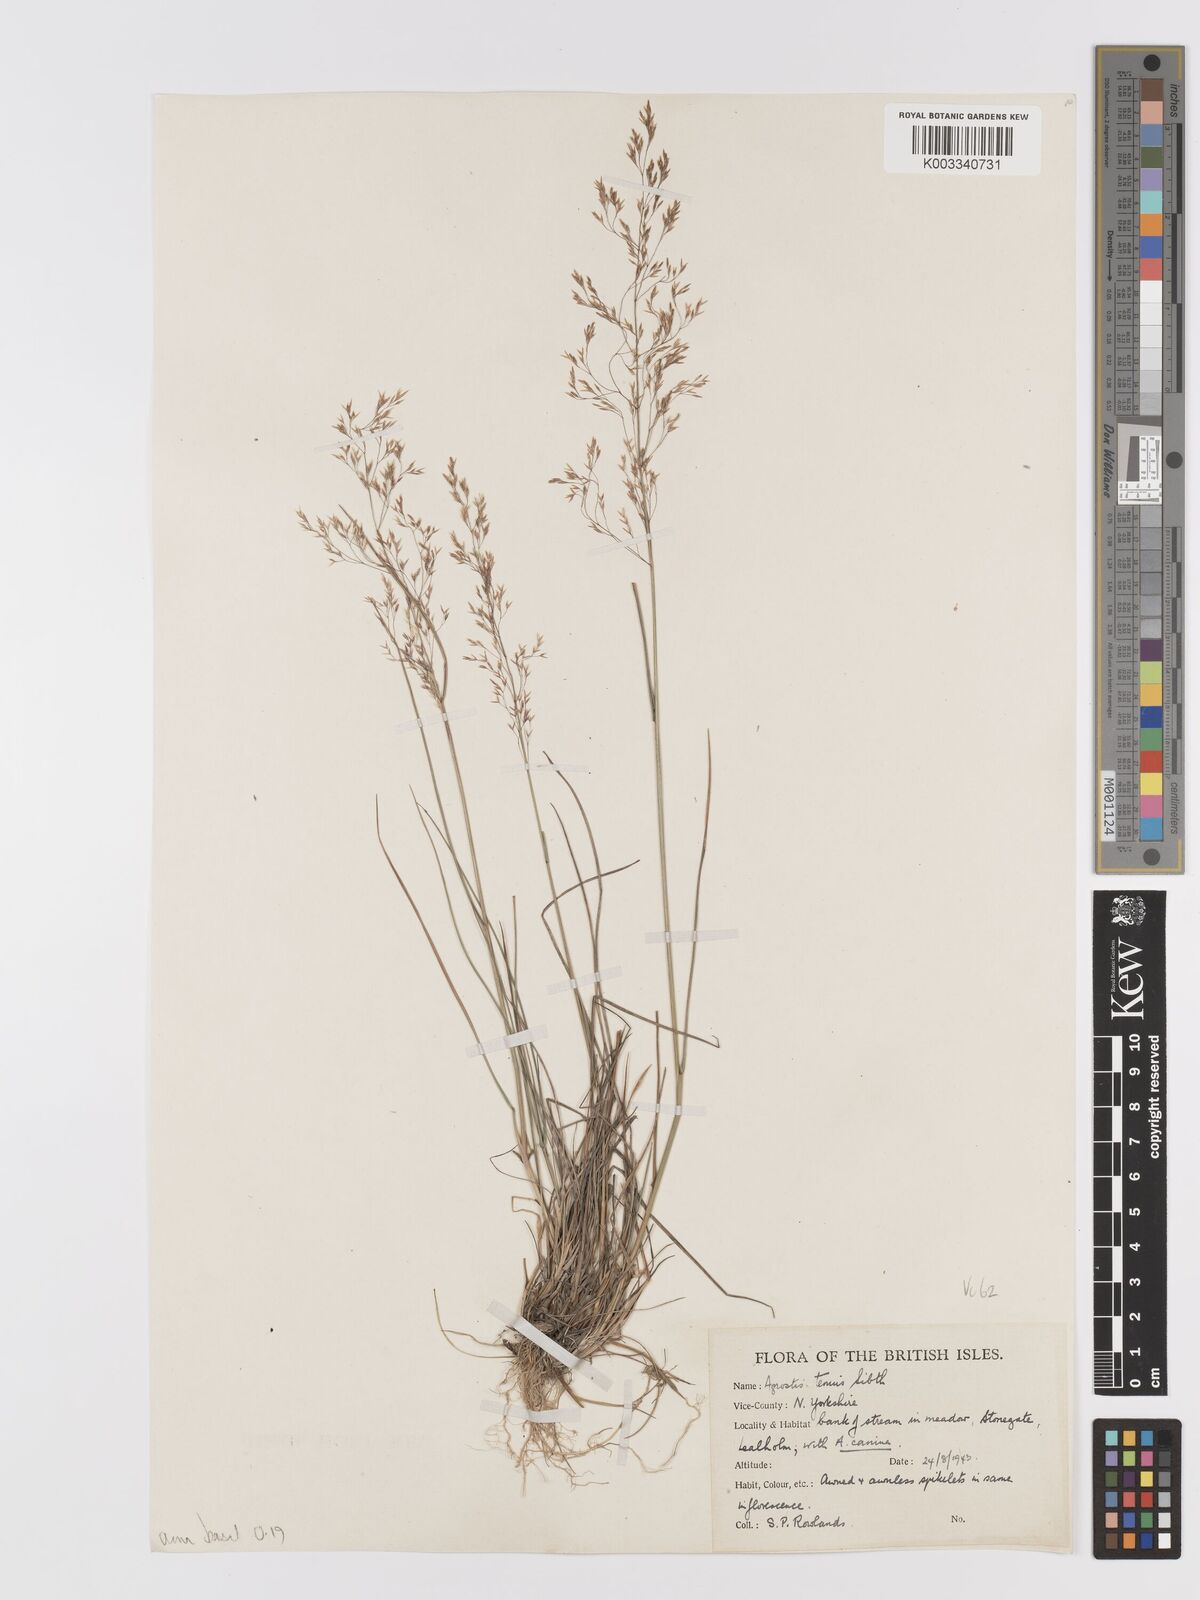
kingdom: Plantae
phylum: Tracheophyta
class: Liliopsida
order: Poales
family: Poaceae
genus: Agrostis
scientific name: Agrostis capillaris
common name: Colonial bentgrass
